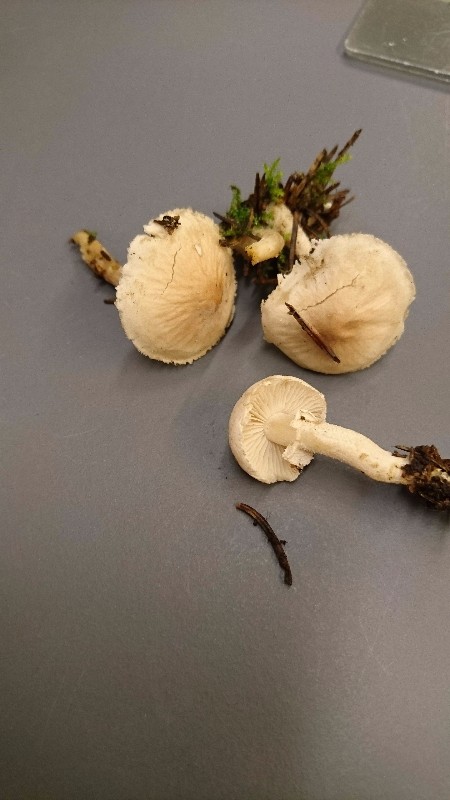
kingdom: Fungi
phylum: Basidiomycota
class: Agaricomycetes
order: Agaricales
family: Tricholomataceae
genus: Cystoderma
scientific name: Cystoderma carcharias
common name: rødgrå grynhat
